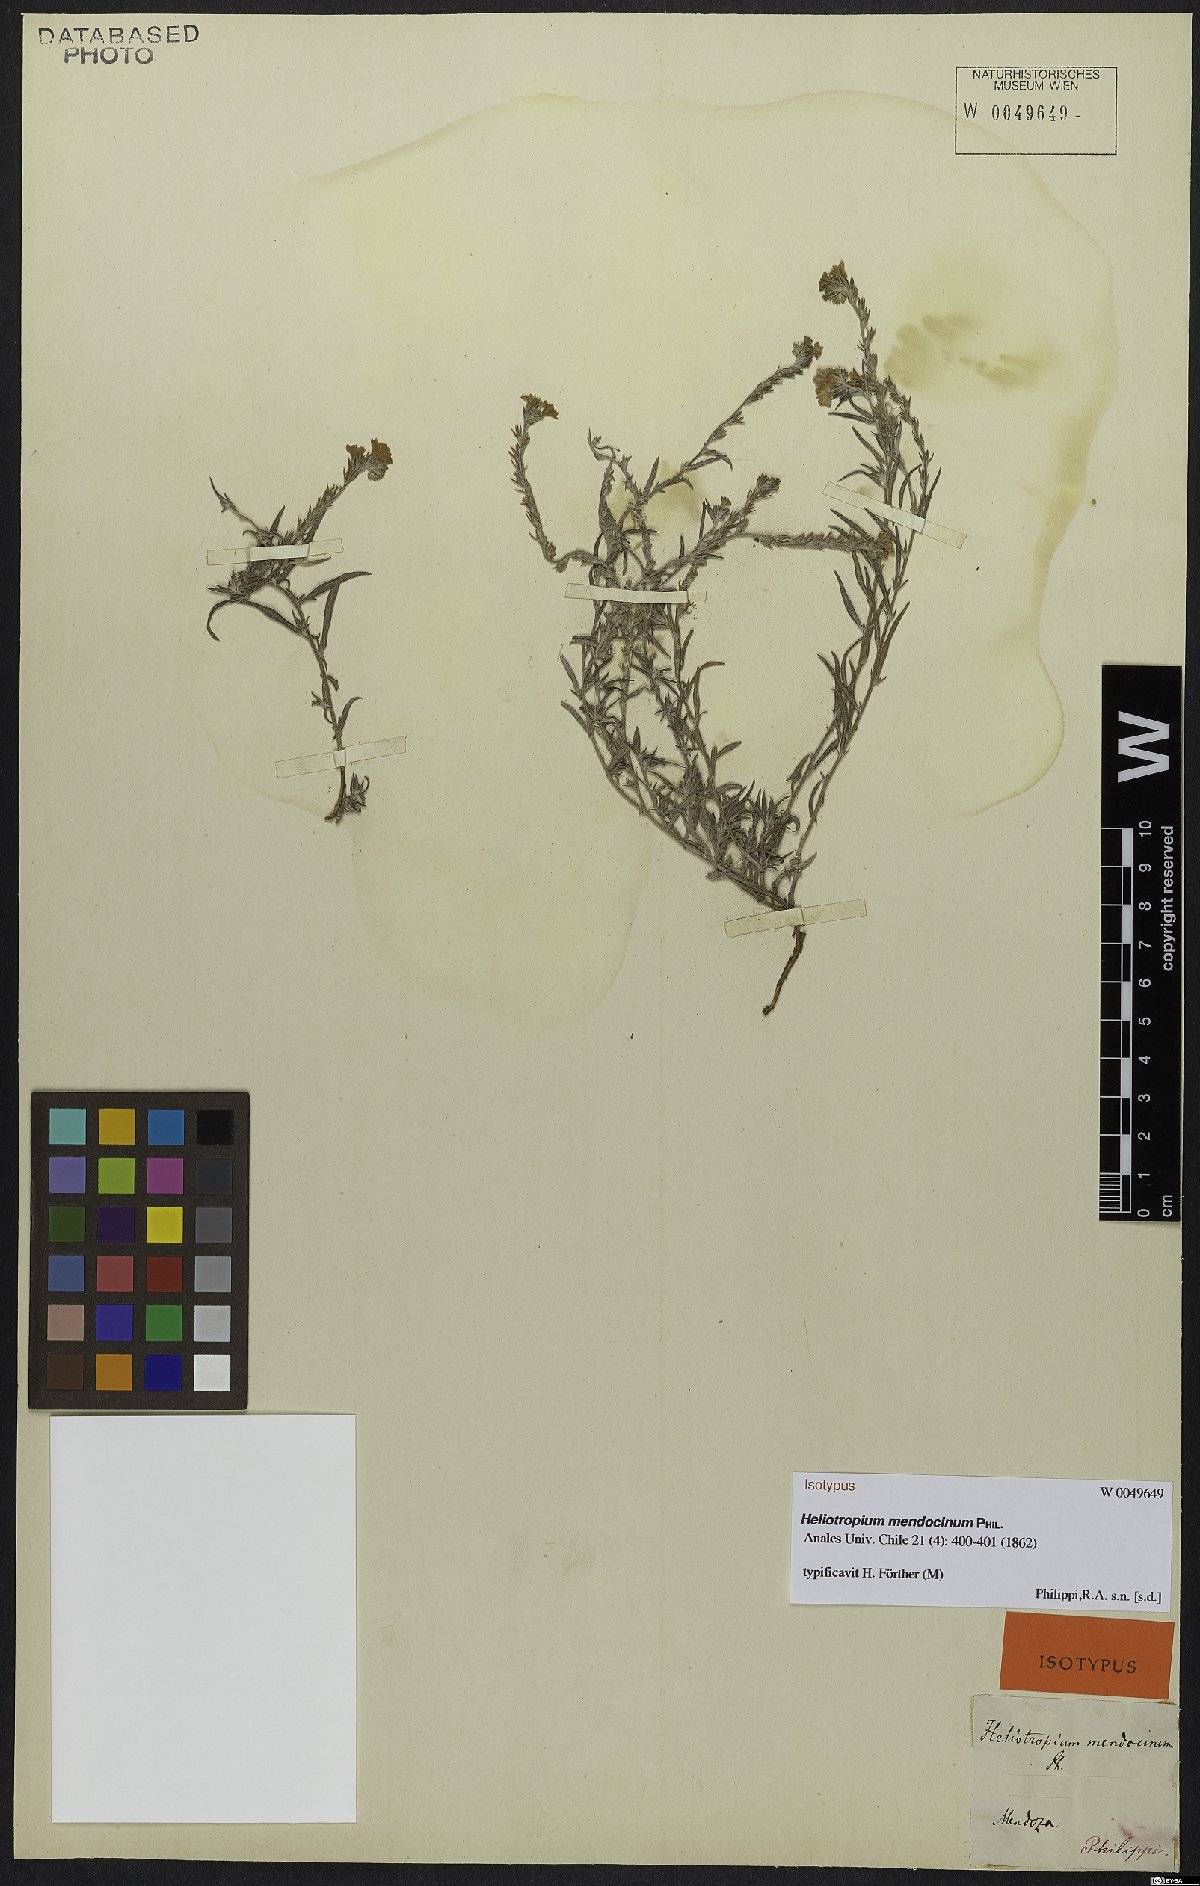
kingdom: Plantae
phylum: Tracheophyta
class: Magnoliopsida
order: Boraginales
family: Heliotropiaceae
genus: Euploca
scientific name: Euploca mendocina
